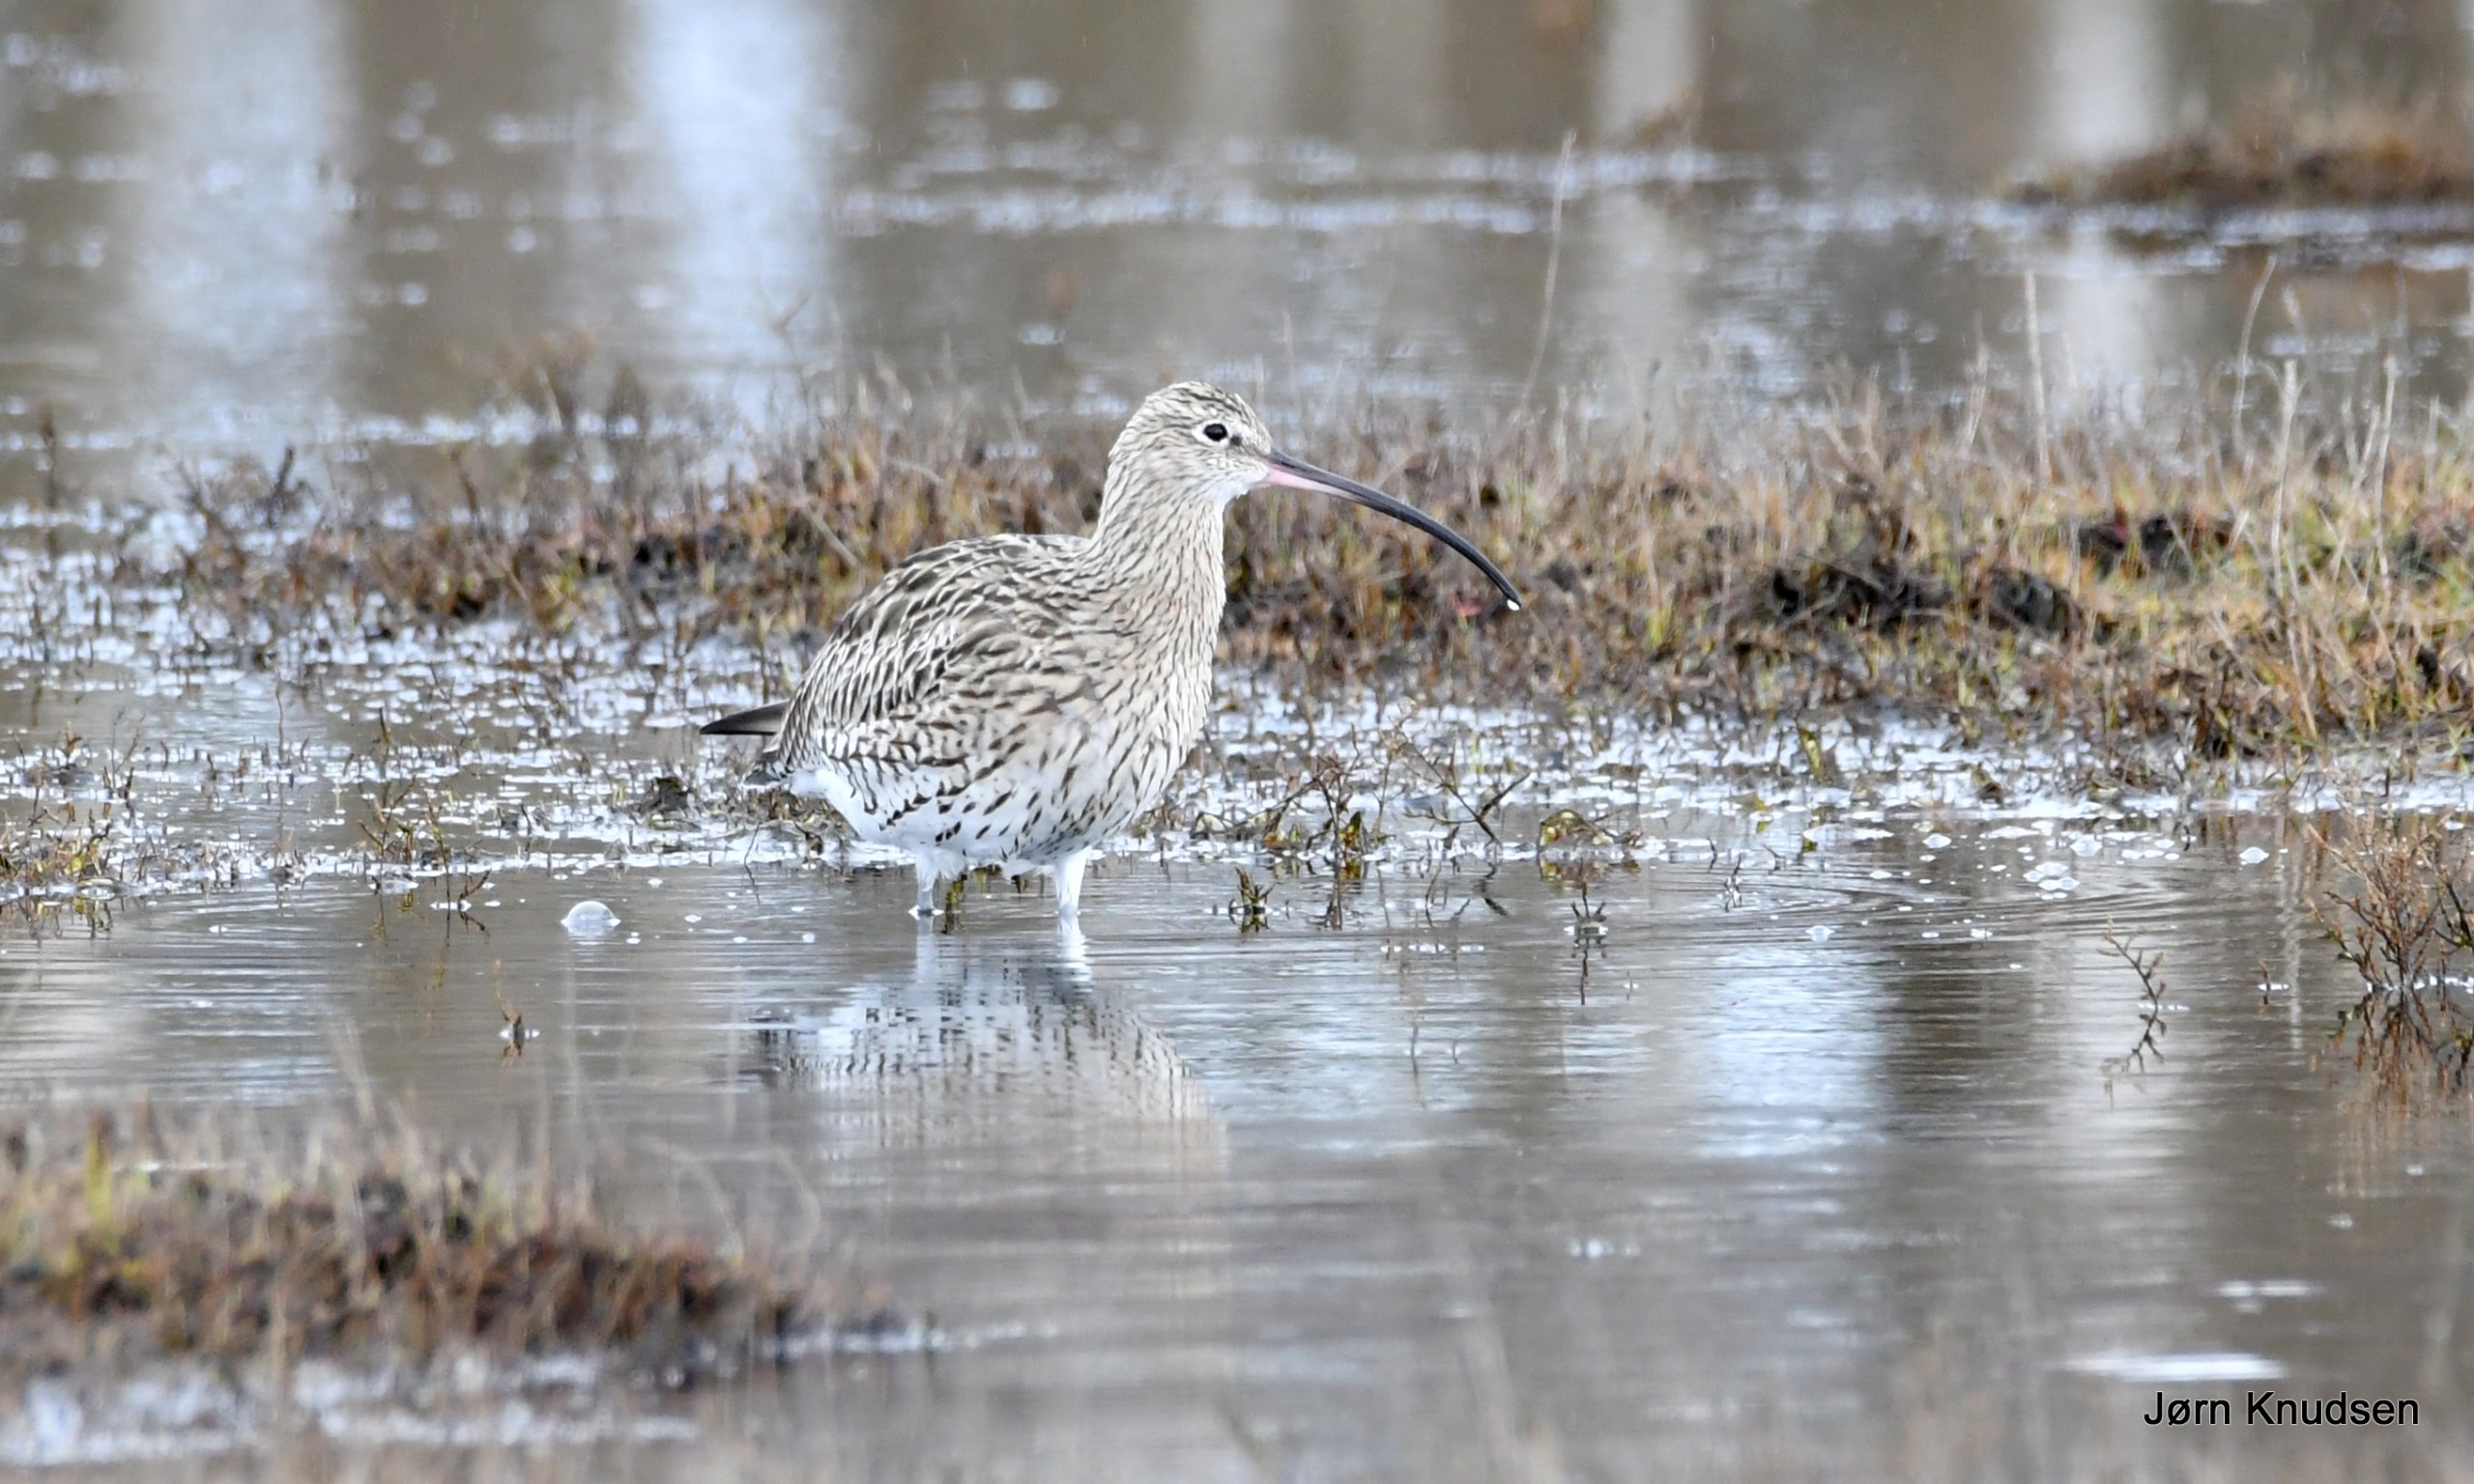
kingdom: Animalia
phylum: Chordata
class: Aves
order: Charadriiformes
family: Scolopacidae
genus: Numenius
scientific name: Numenius arquata
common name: Storspove
